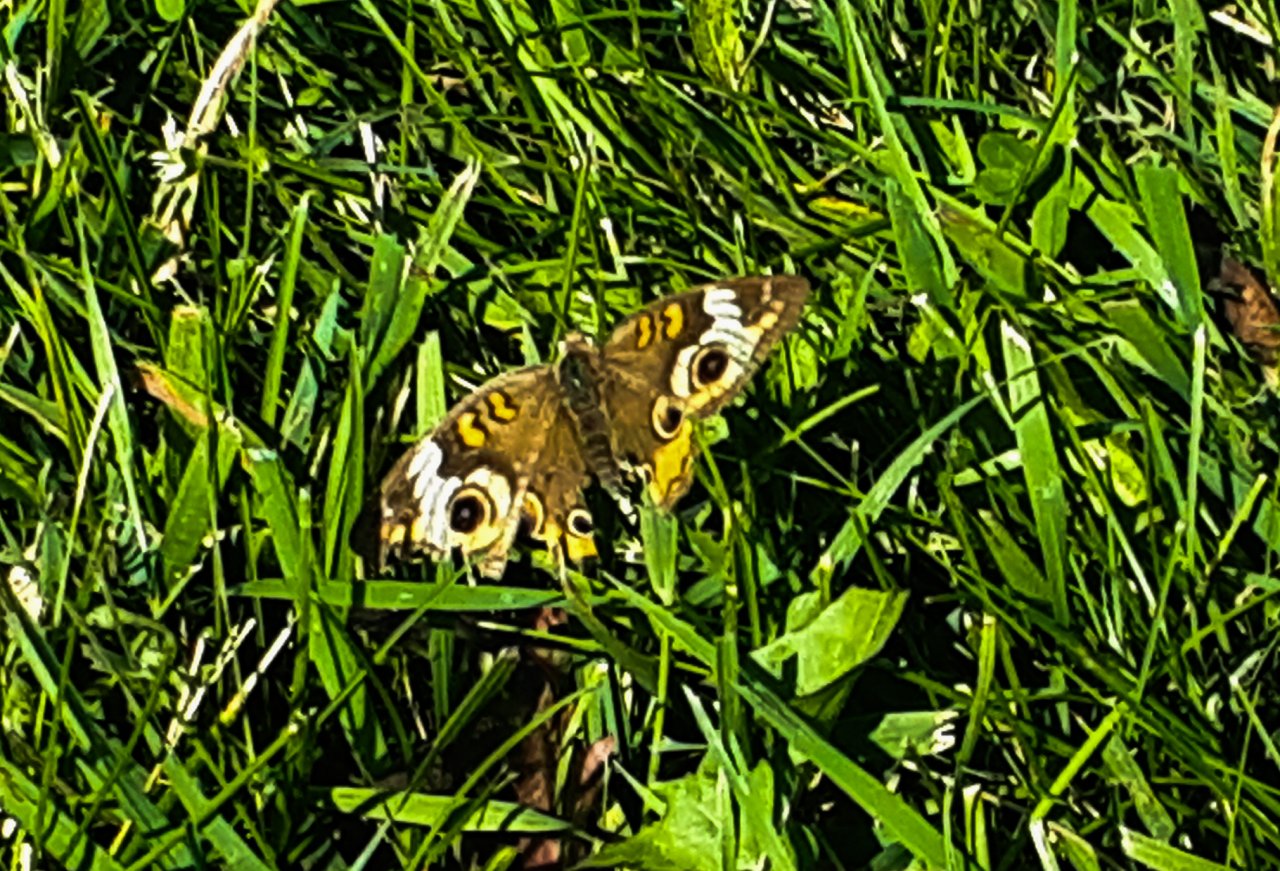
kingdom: Animalia
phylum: Arthropoda
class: Insecta
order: Lepidoptera
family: Nymphalidae
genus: Junonia
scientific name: Junonia coenia
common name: Common Buckeye
